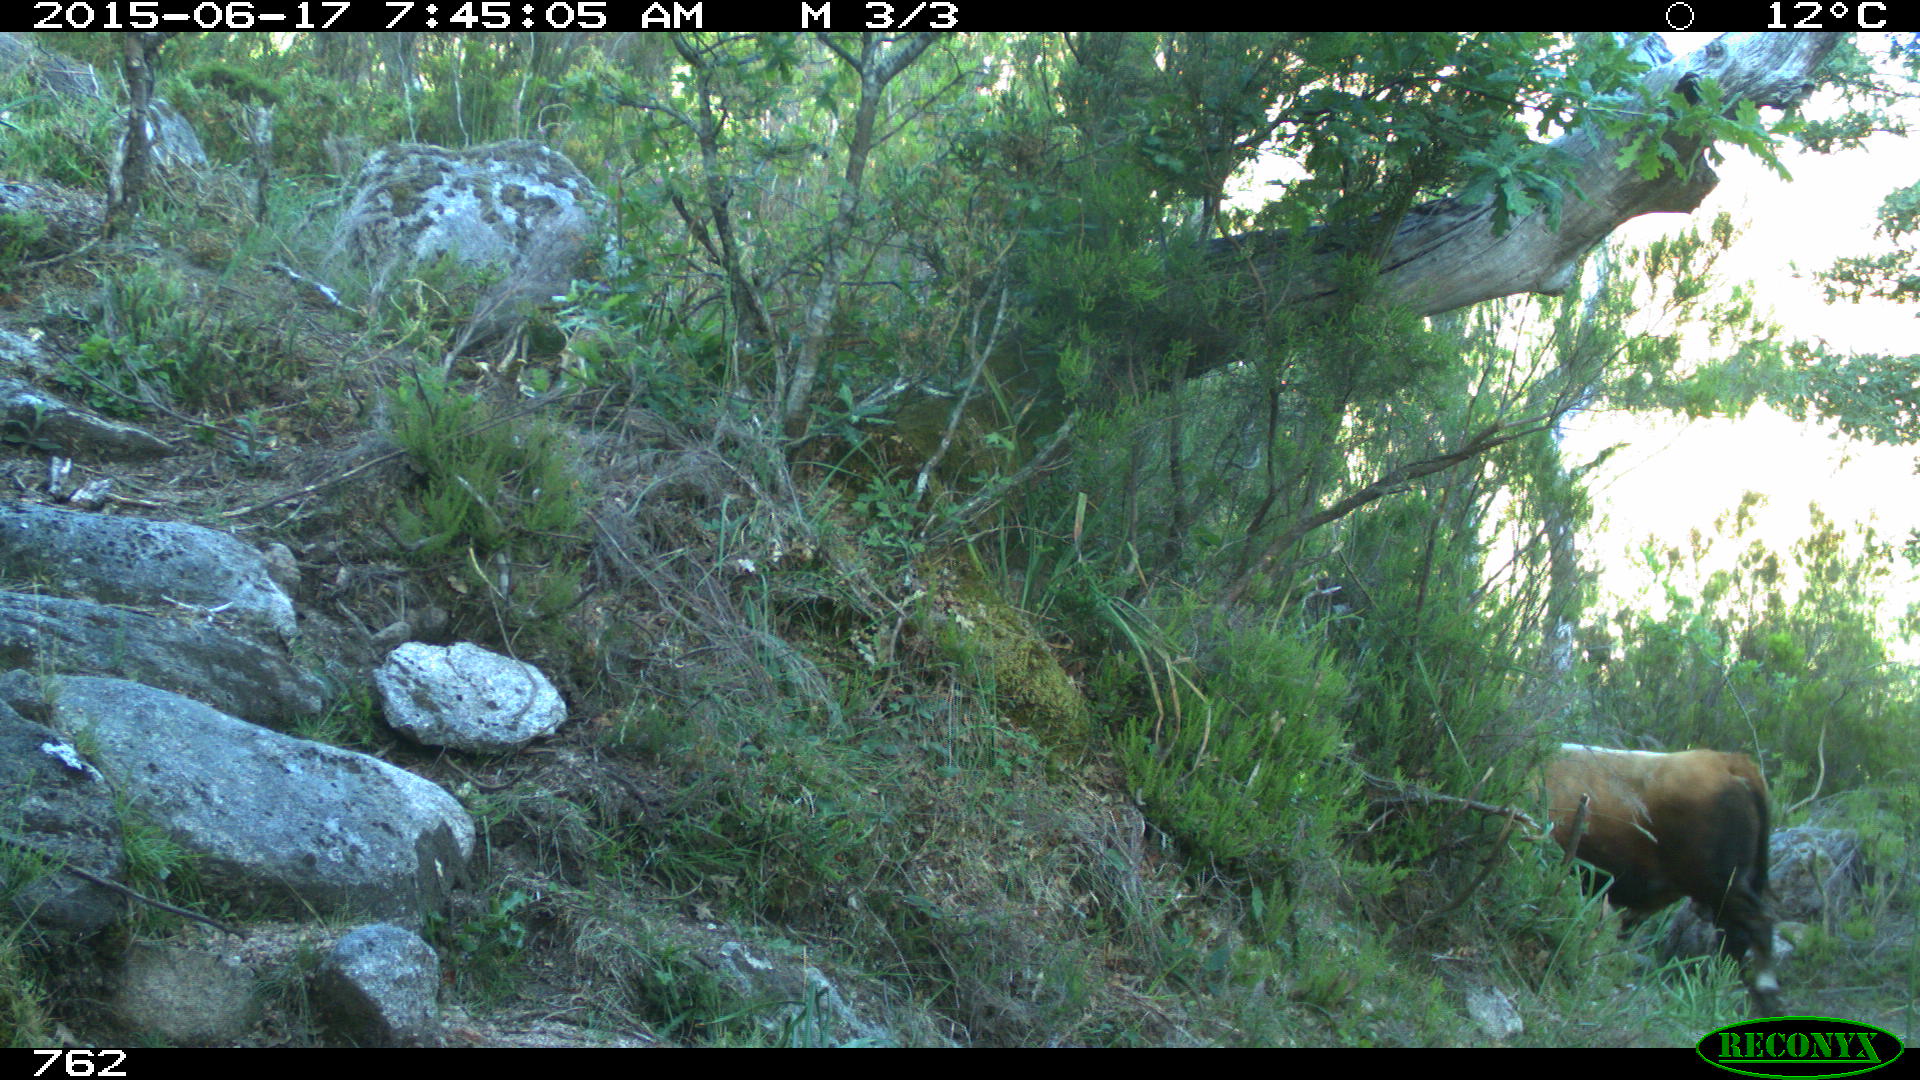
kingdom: Animalia
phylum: Chordata
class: Mammalia
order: Artiodactyla
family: Bovidae
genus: Bos
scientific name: Bos taurus
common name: Domesticated cattle
